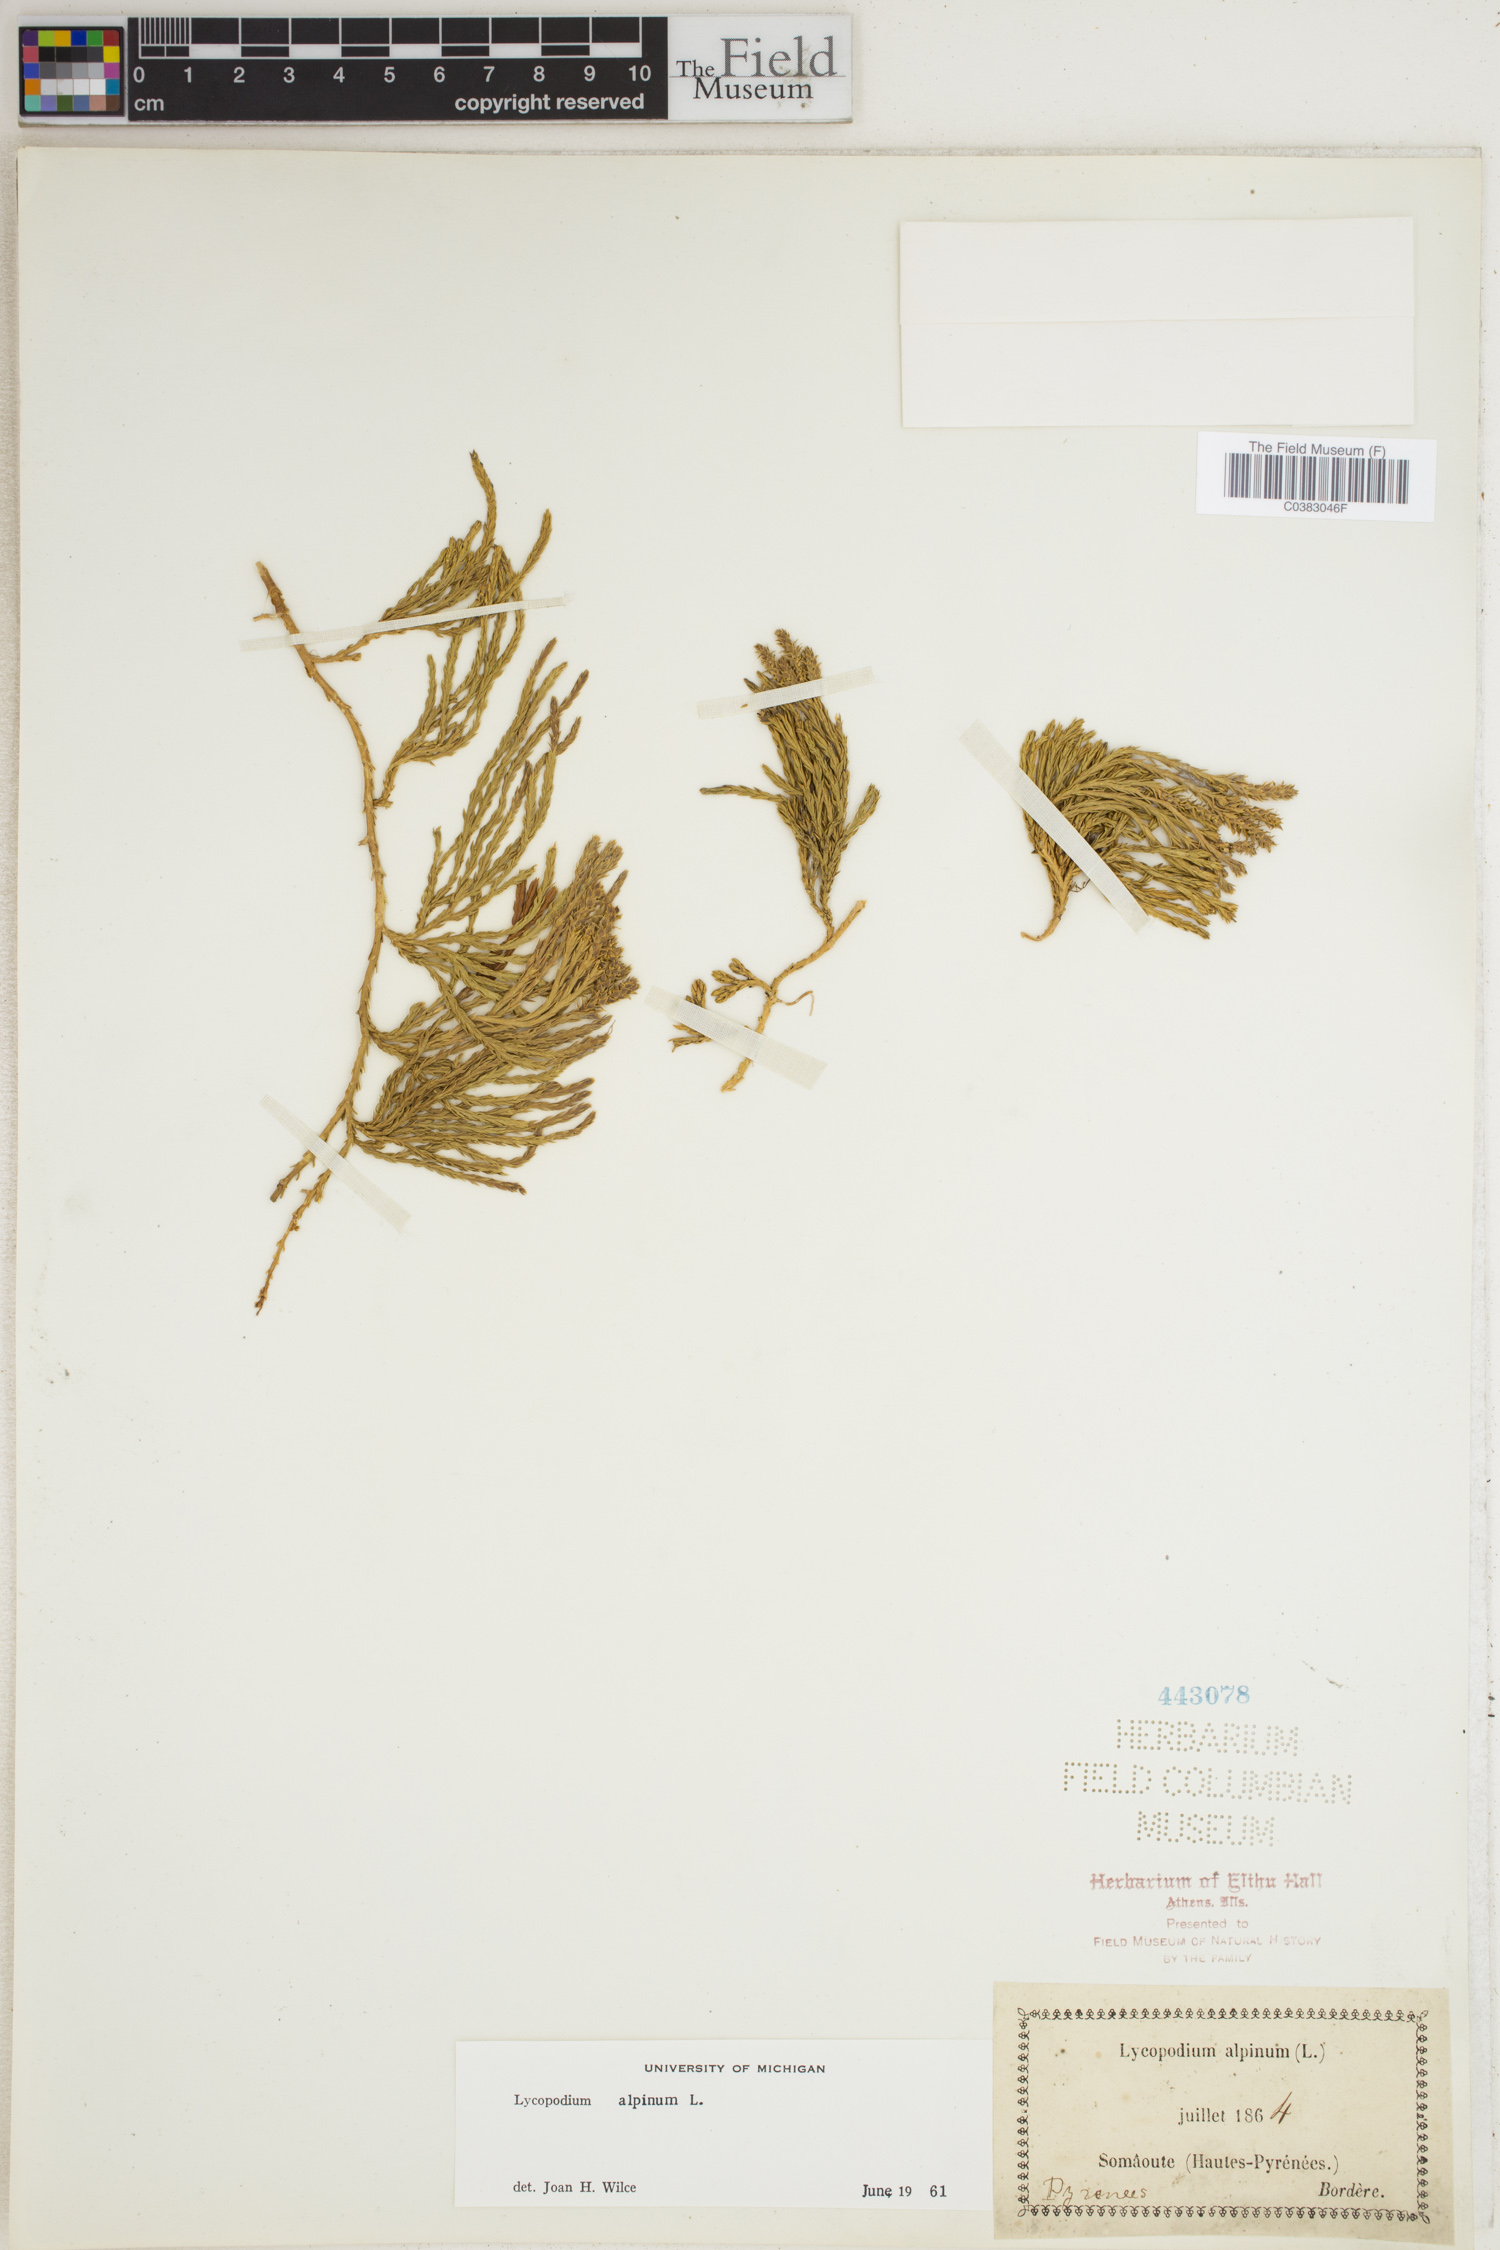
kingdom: Plantae
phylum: Tracheophyta
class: Lycopodiopsida
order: Lycopodiales
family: Lycopodiaceae
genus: Diphasiastrum
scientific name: Diphasiastrum alpinum
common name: Alpine clubmoss
